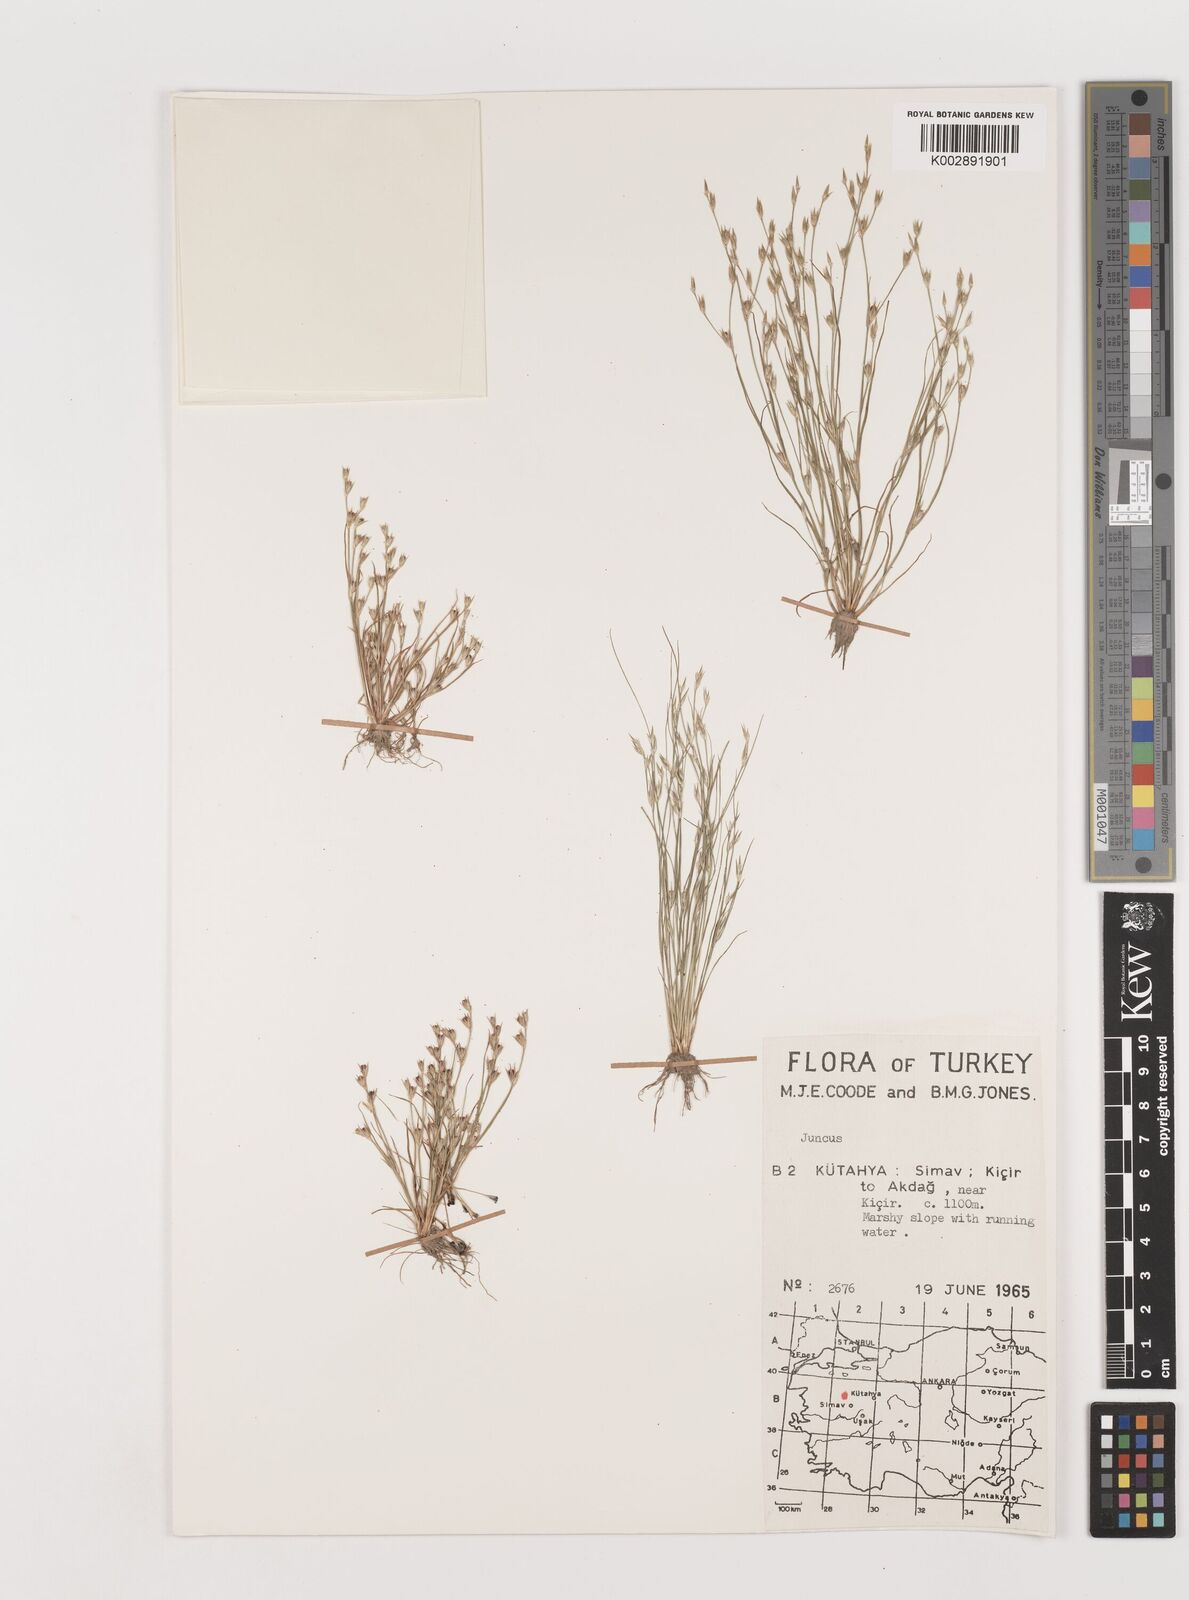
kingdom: Plantae
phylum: Tracheophyta
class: Liliopsida
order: Poales
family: Juncaceae
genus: Juncus
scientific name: Juncus
